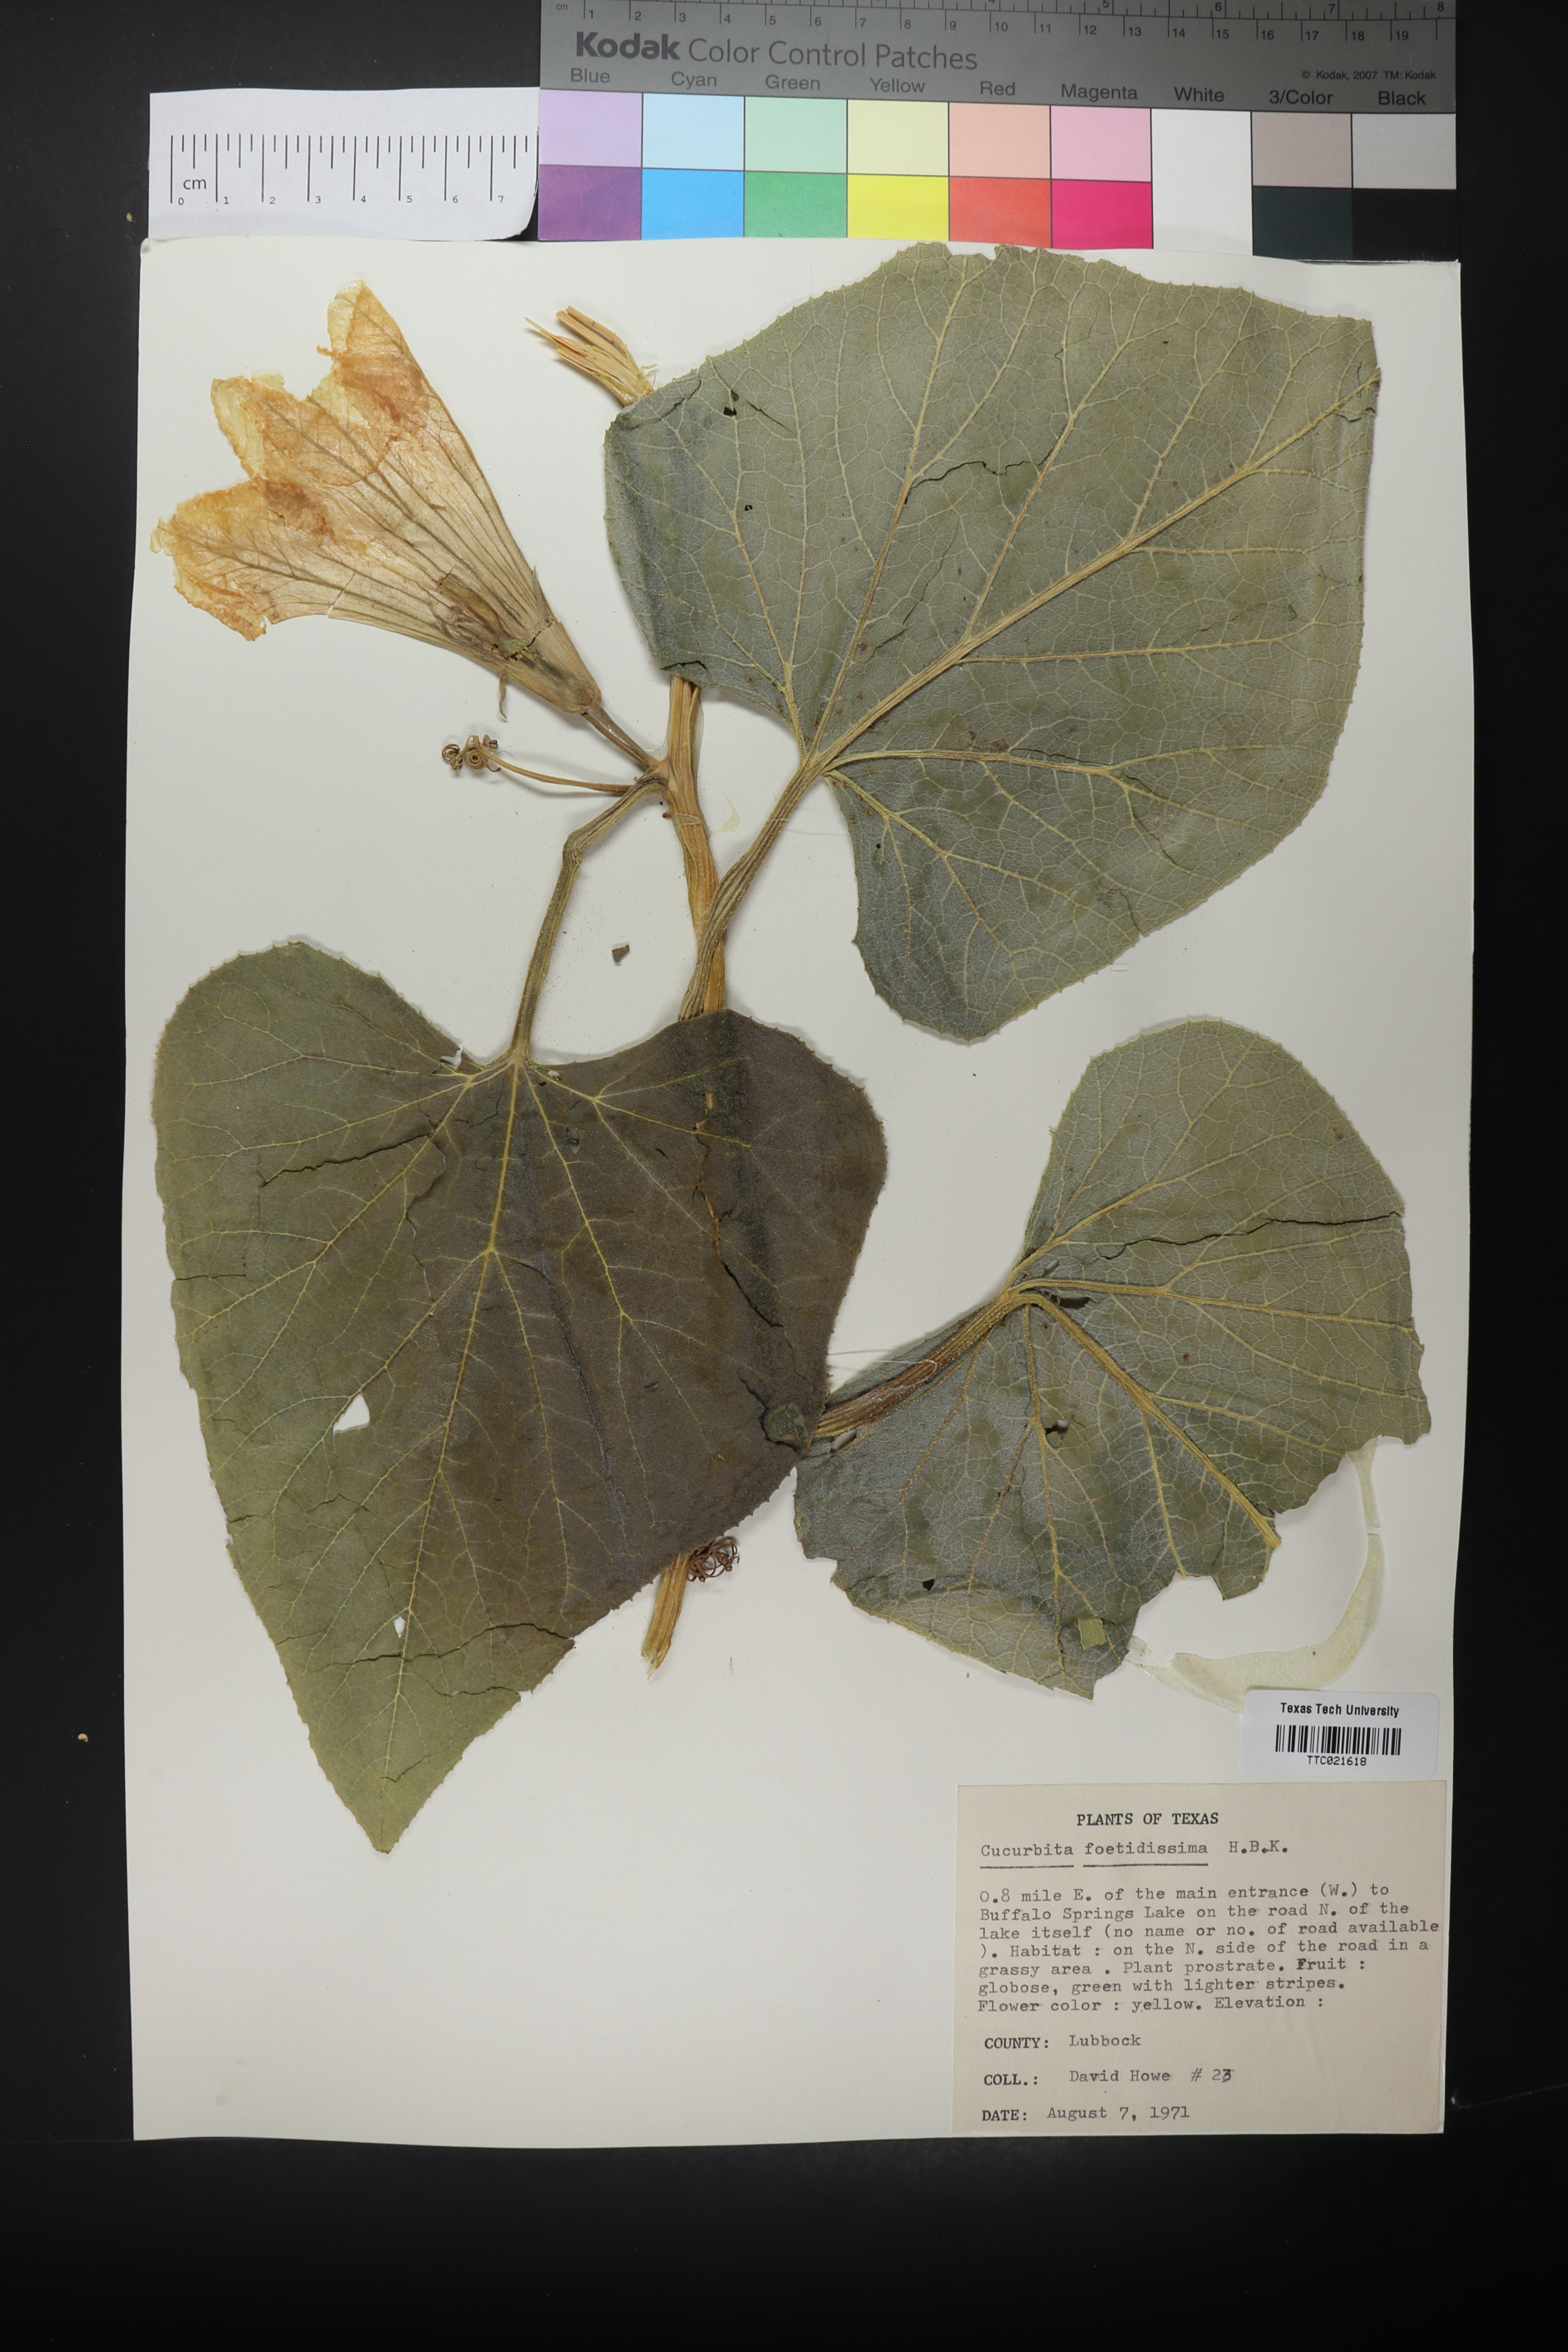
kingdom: Plantae
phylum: Tracheophyta
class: Magnoliopsida
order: Cucurbitales
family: Cucurbitaceae
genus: Cucurbita
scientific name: Cucurbita foetidissima
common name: Buffalo gourd
